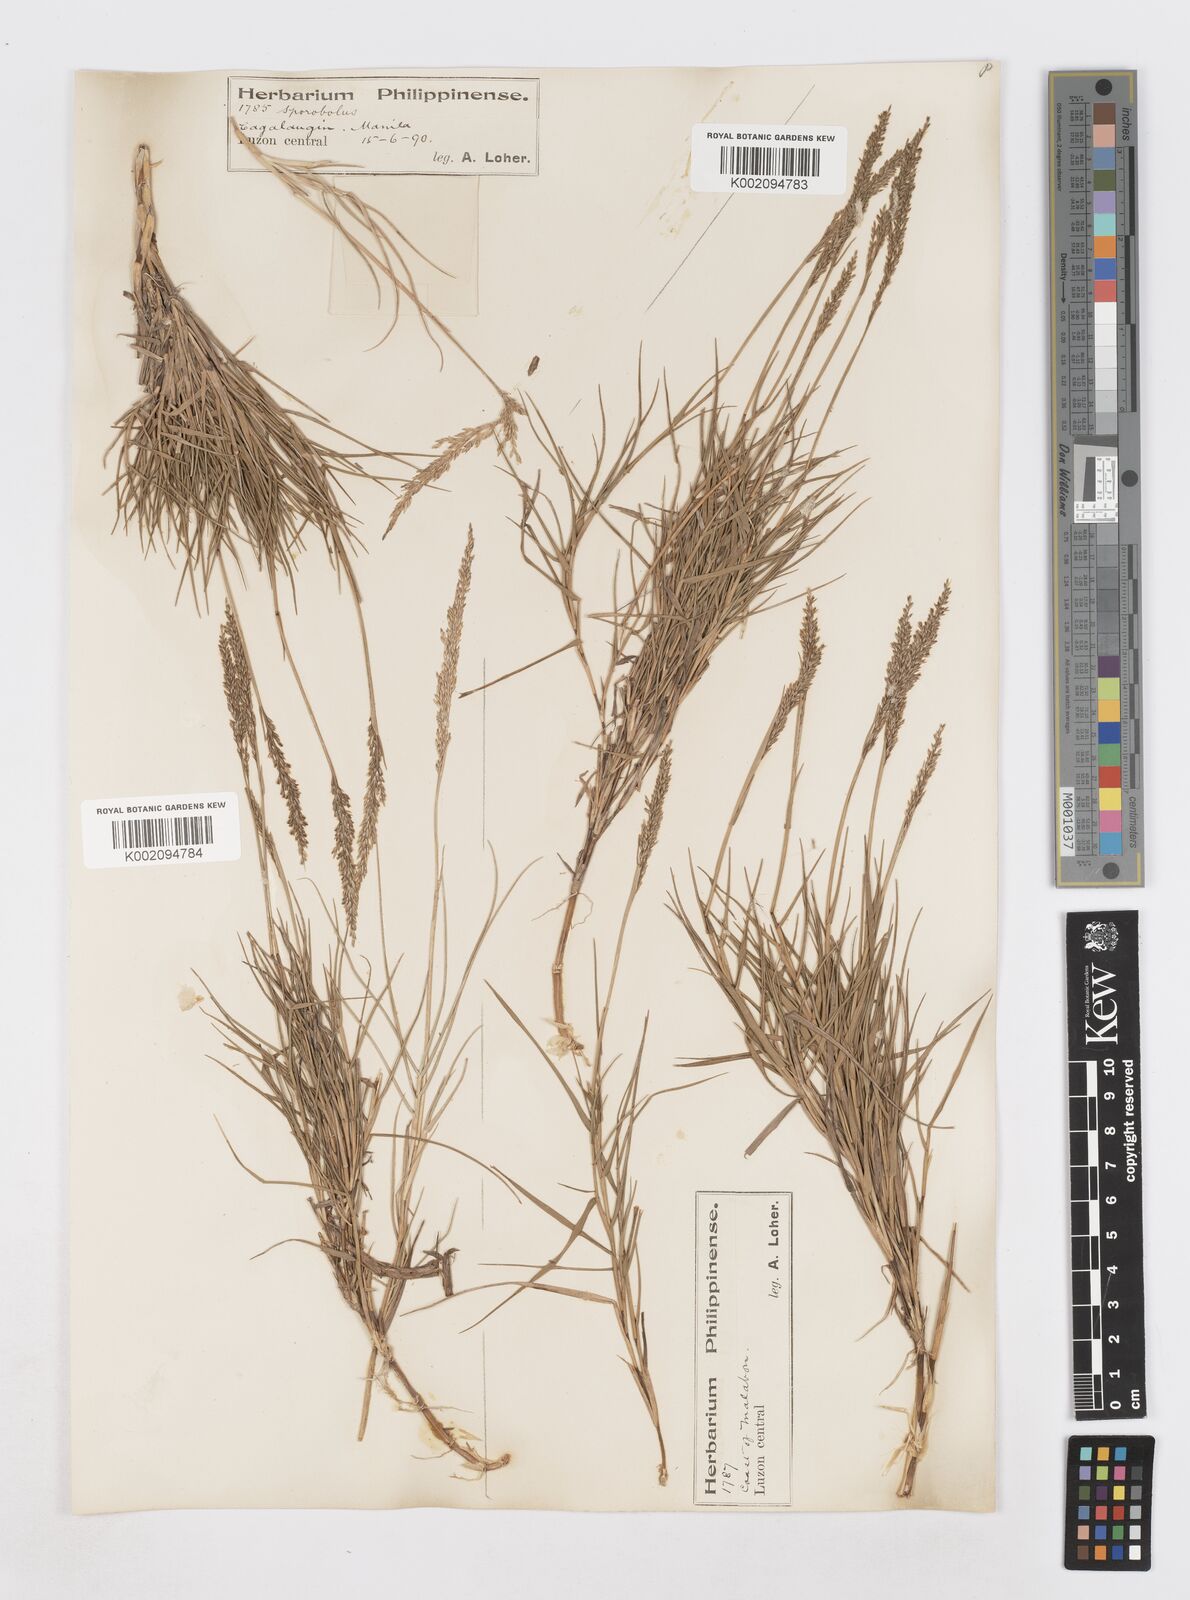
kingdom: Plantae
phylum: Tracheophyta
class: Liliopsida
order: Poales
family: Poaceae
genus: Sporobolus
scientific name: Sporobolus virginicus
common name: Beach dropseed
